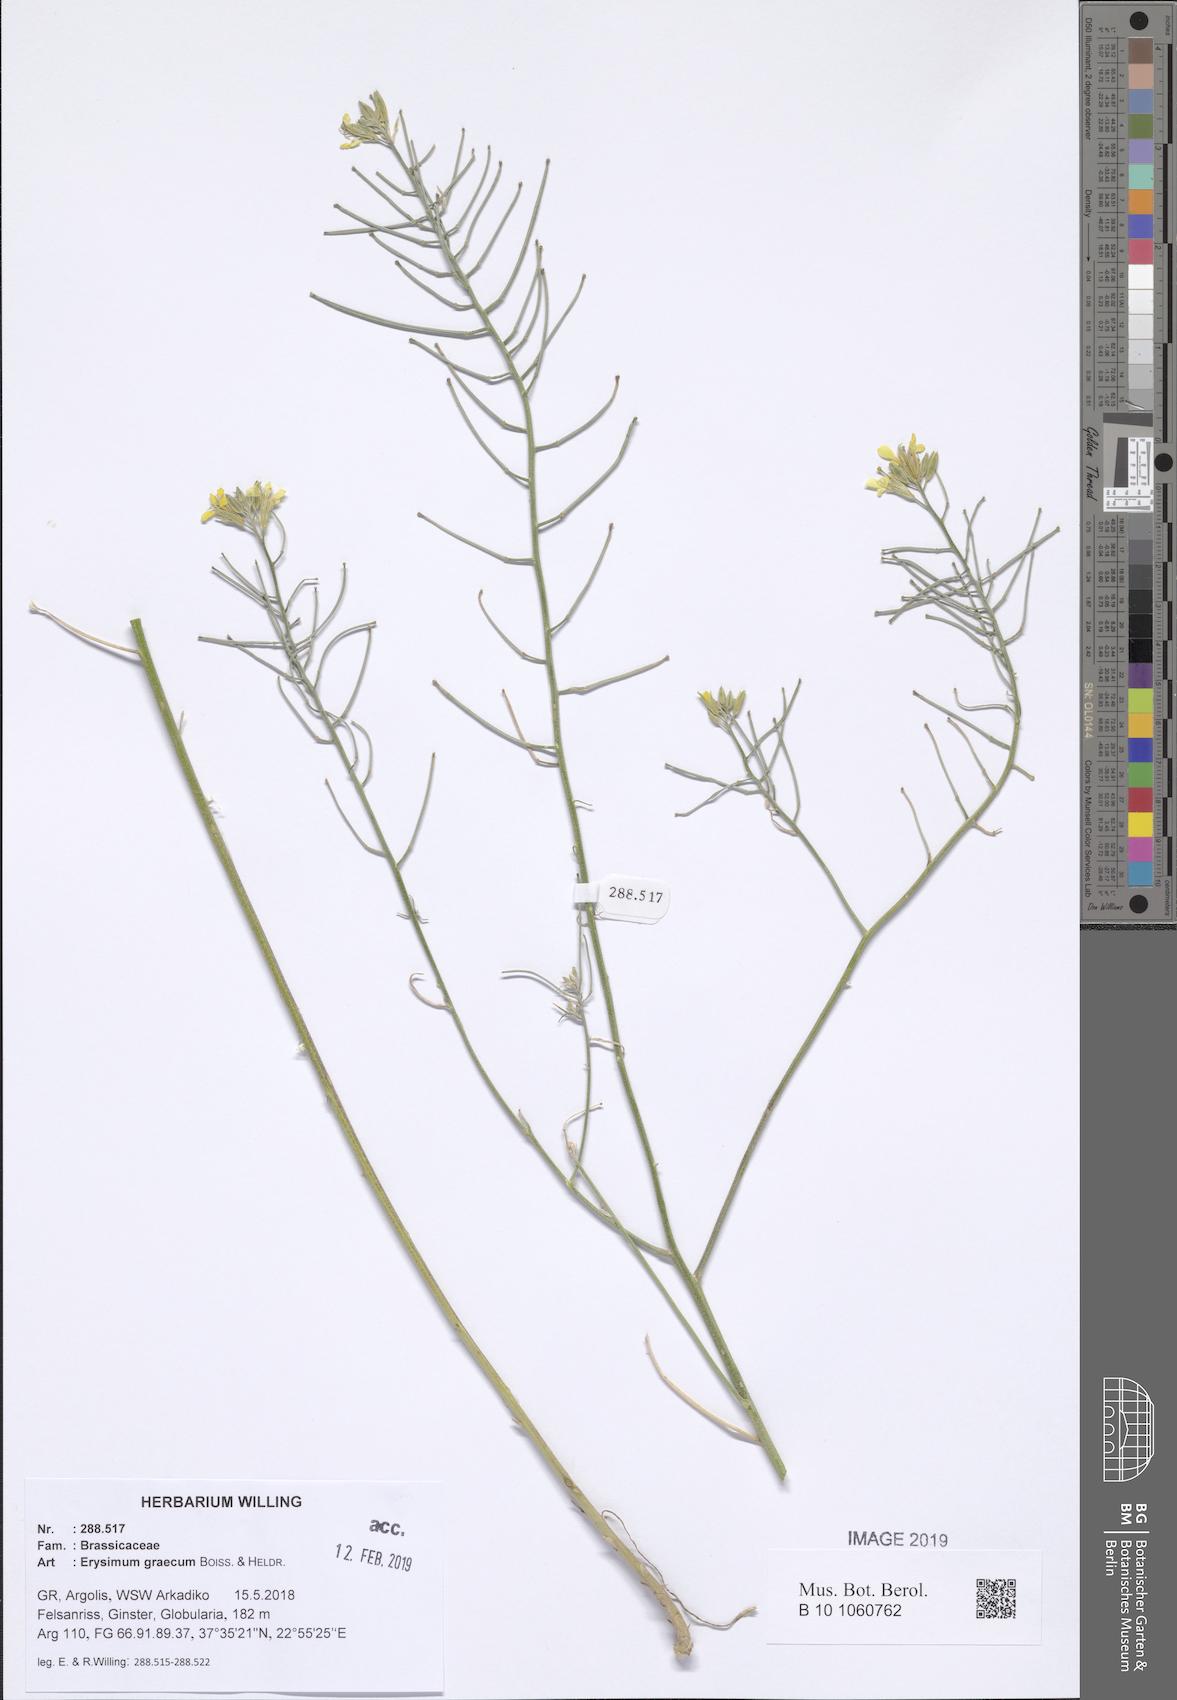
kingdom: Plantae
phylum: Tracheophyta
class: Magnoliopsida
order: Brassicales
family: Brassicaceae
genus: Erysimum
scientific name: Erysimum graecum
